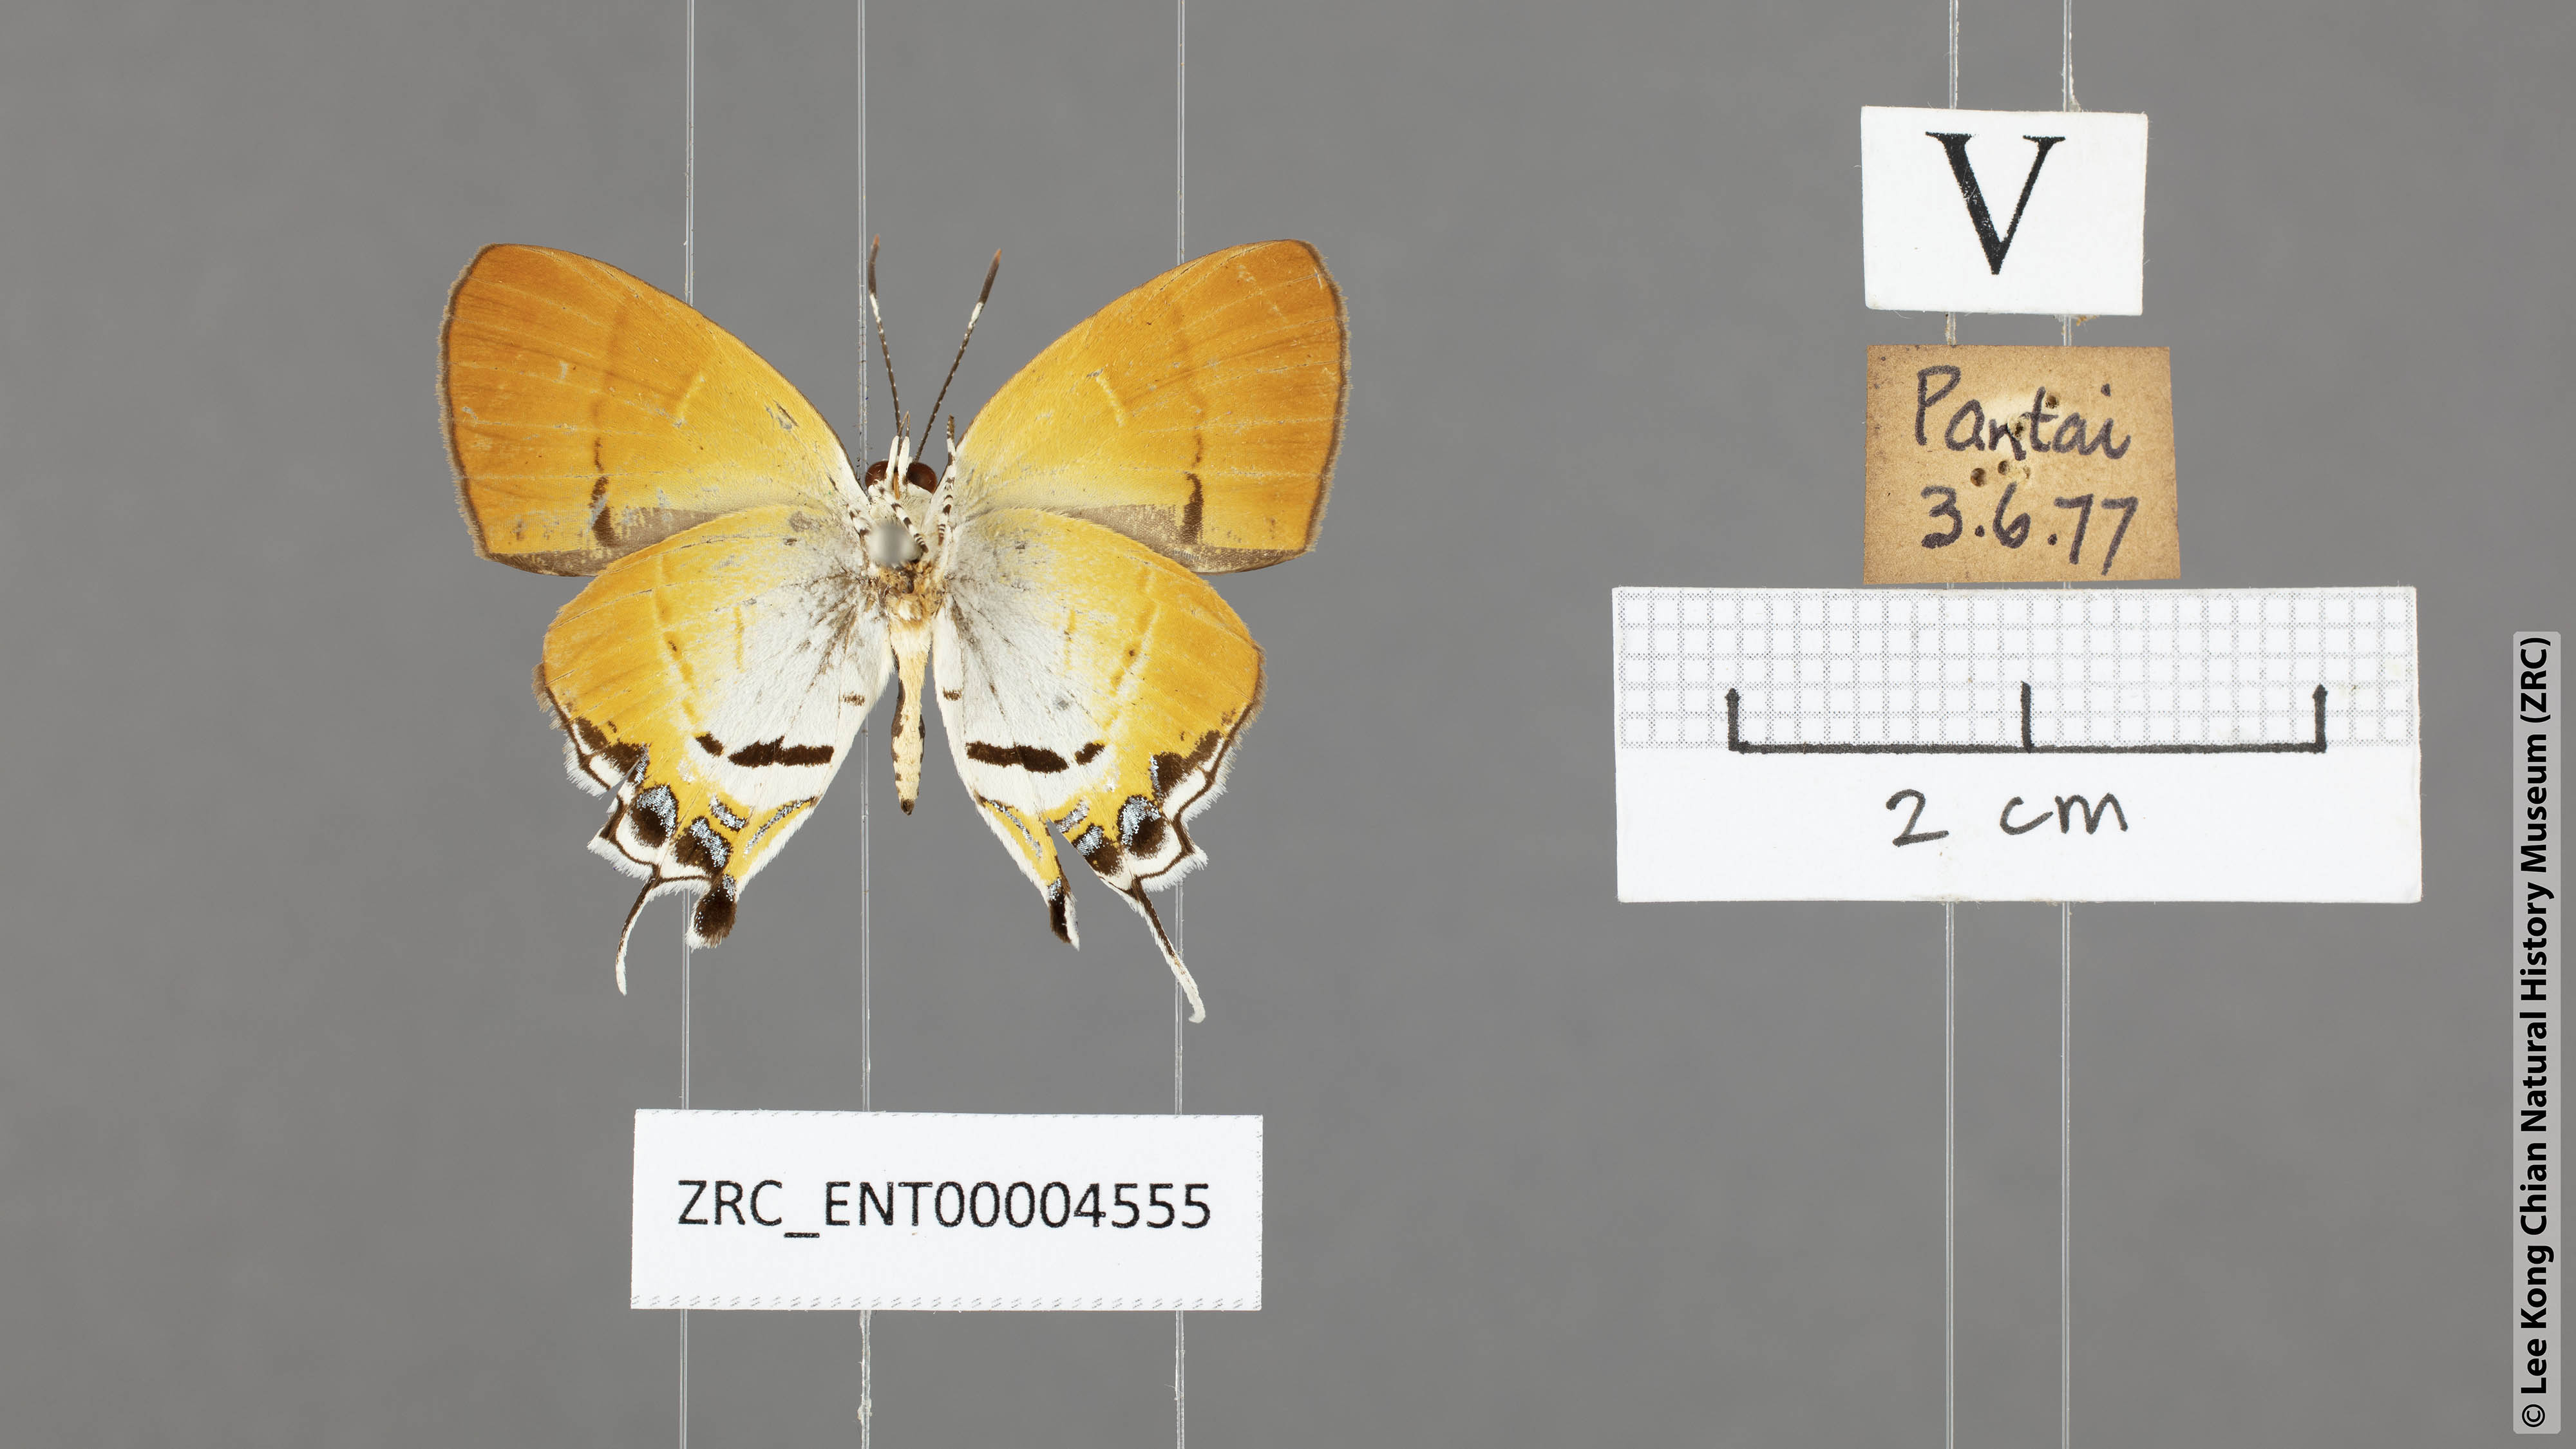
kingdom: Animalia
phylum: Arthropoda
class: Insecta
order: Lepidoptera
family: Lycaenidae
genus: Sithon
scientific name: Sithon nedymond
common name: Plush
